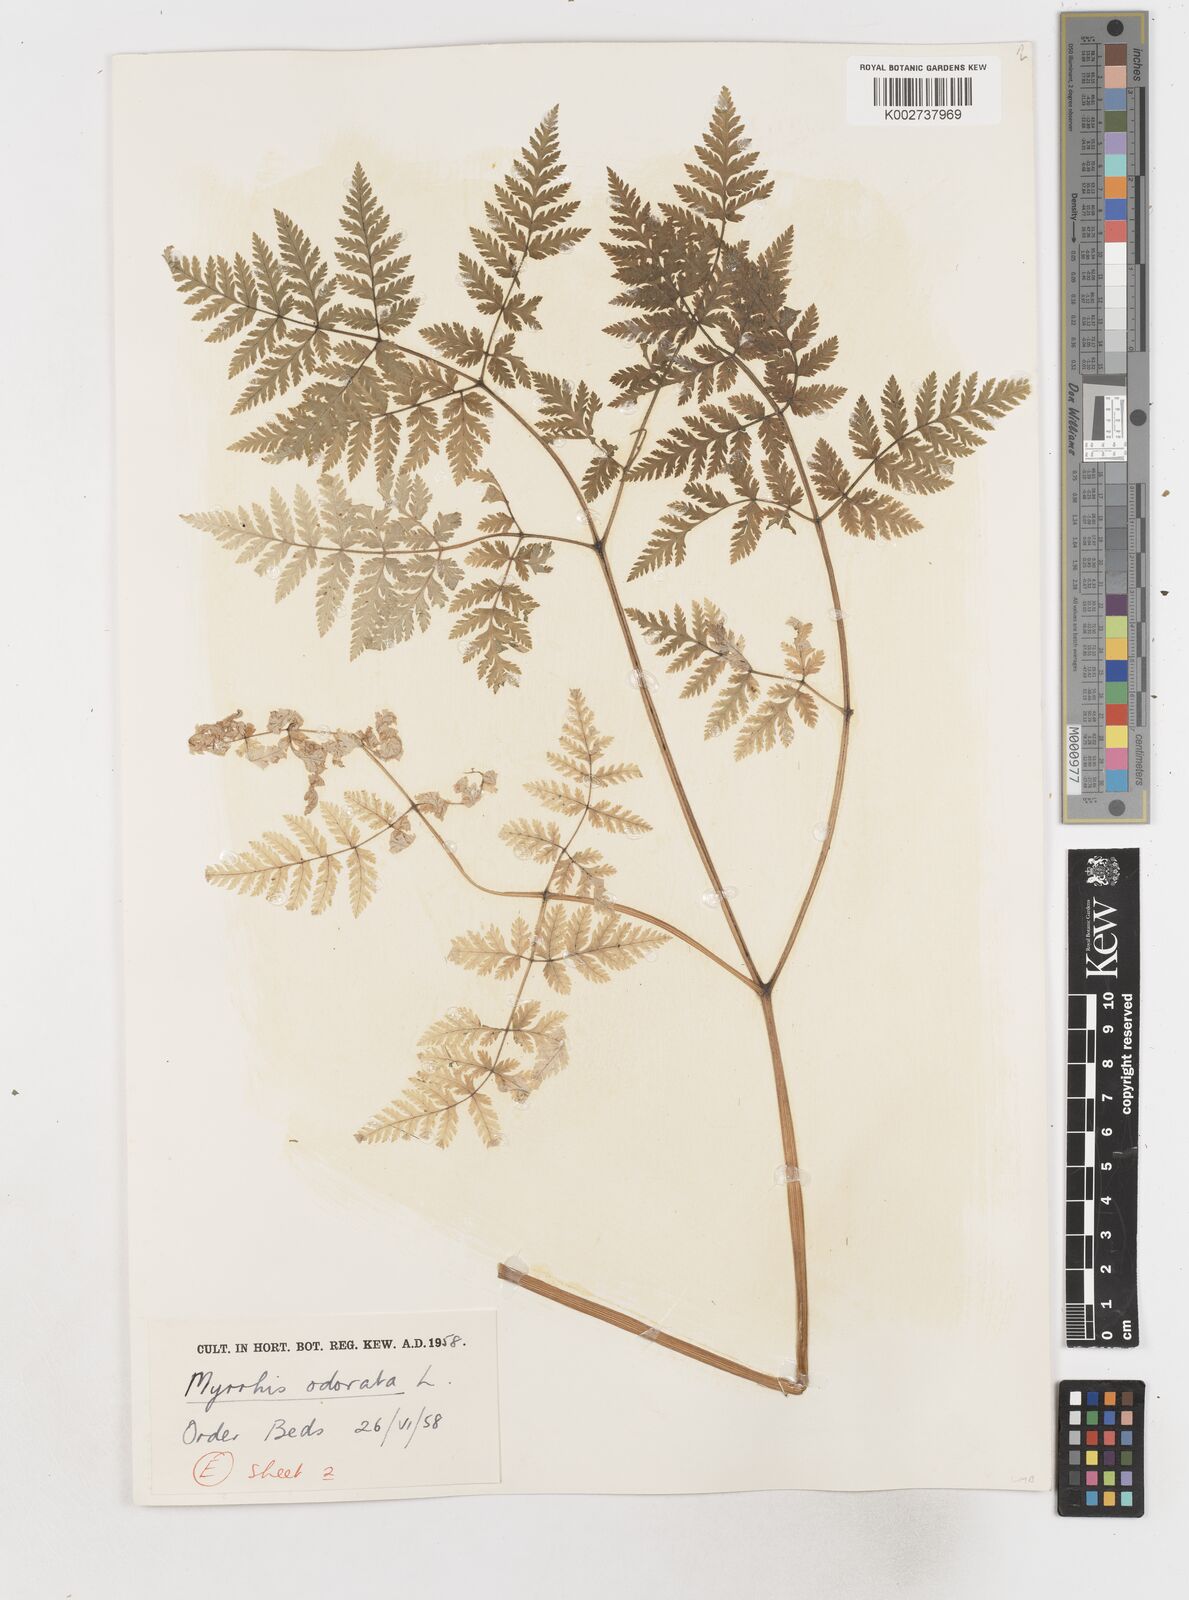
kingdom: Plantae
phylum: Tracheophyta
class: Magnoliopsida
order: Apiales
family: Apiaceae
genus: Myrrhis
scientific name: Myrrhis odorata
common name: Sweet cicely
